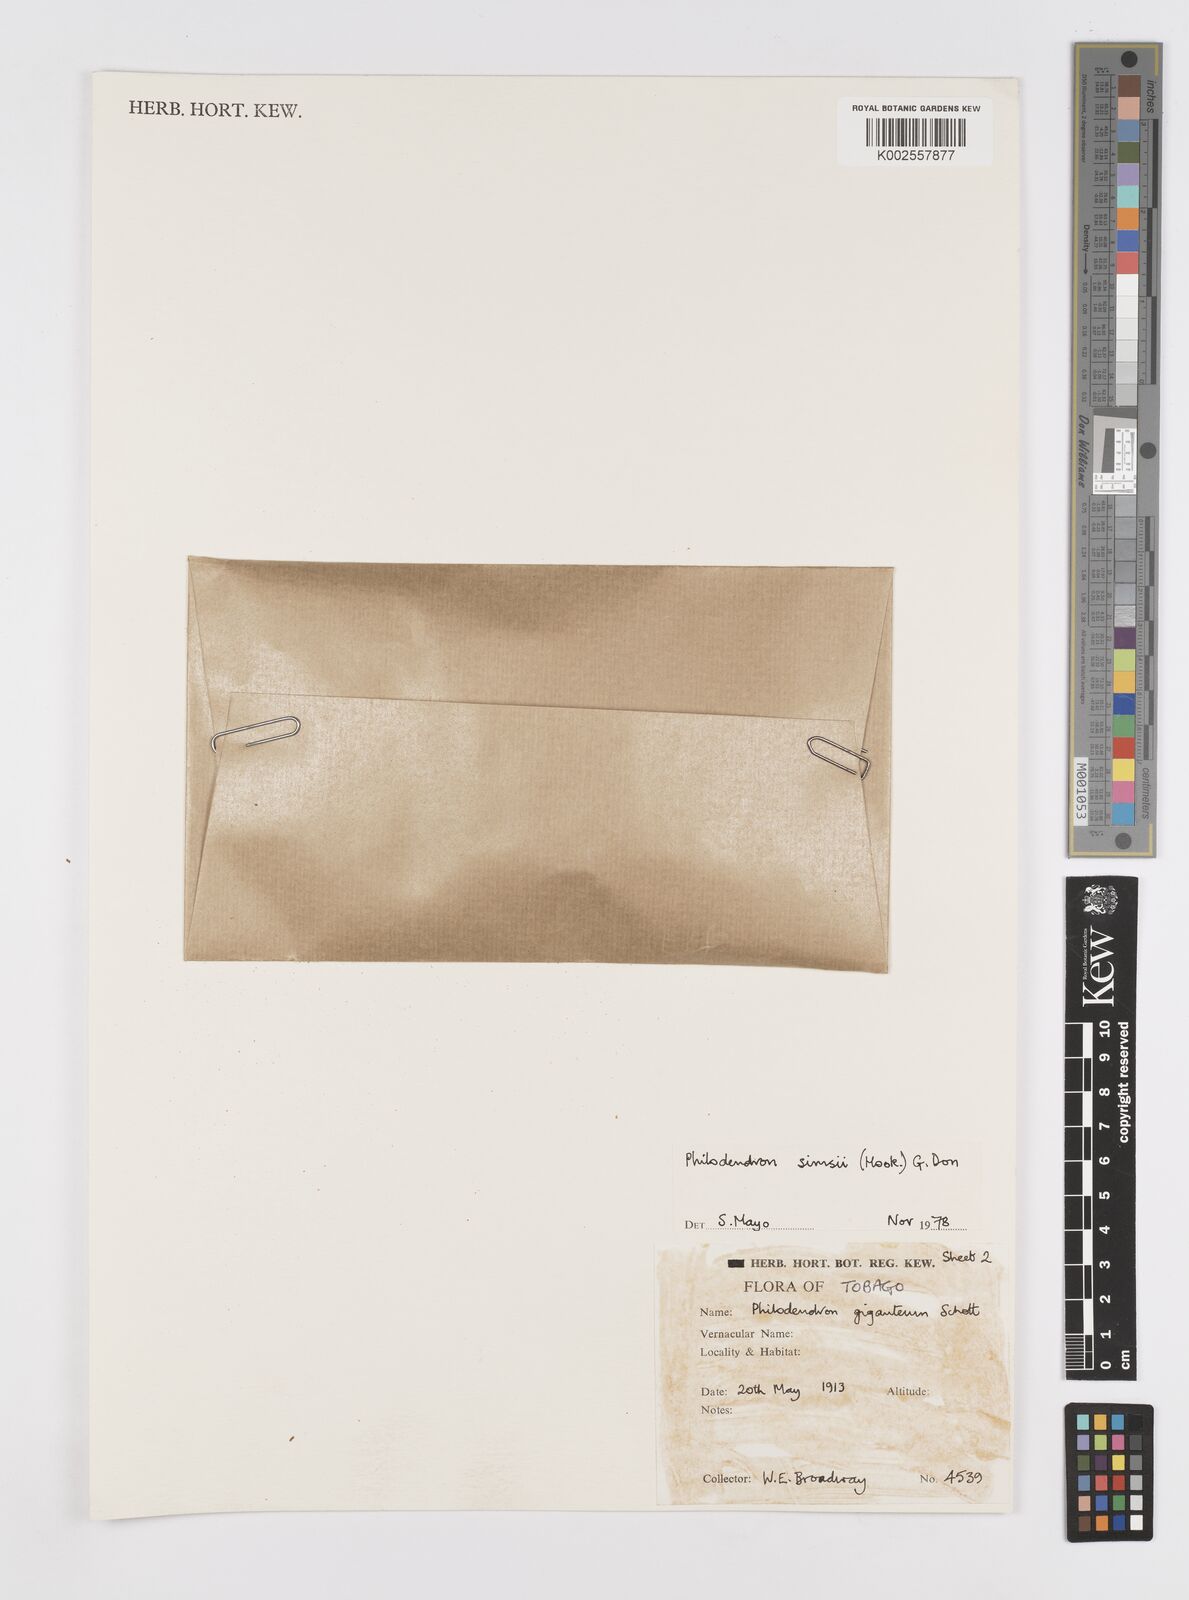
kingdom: Plantae
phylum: Tracheophyta
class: Liliopsida
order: Alismatales
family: Araceae
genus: Philodendron
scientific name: Philodendron
